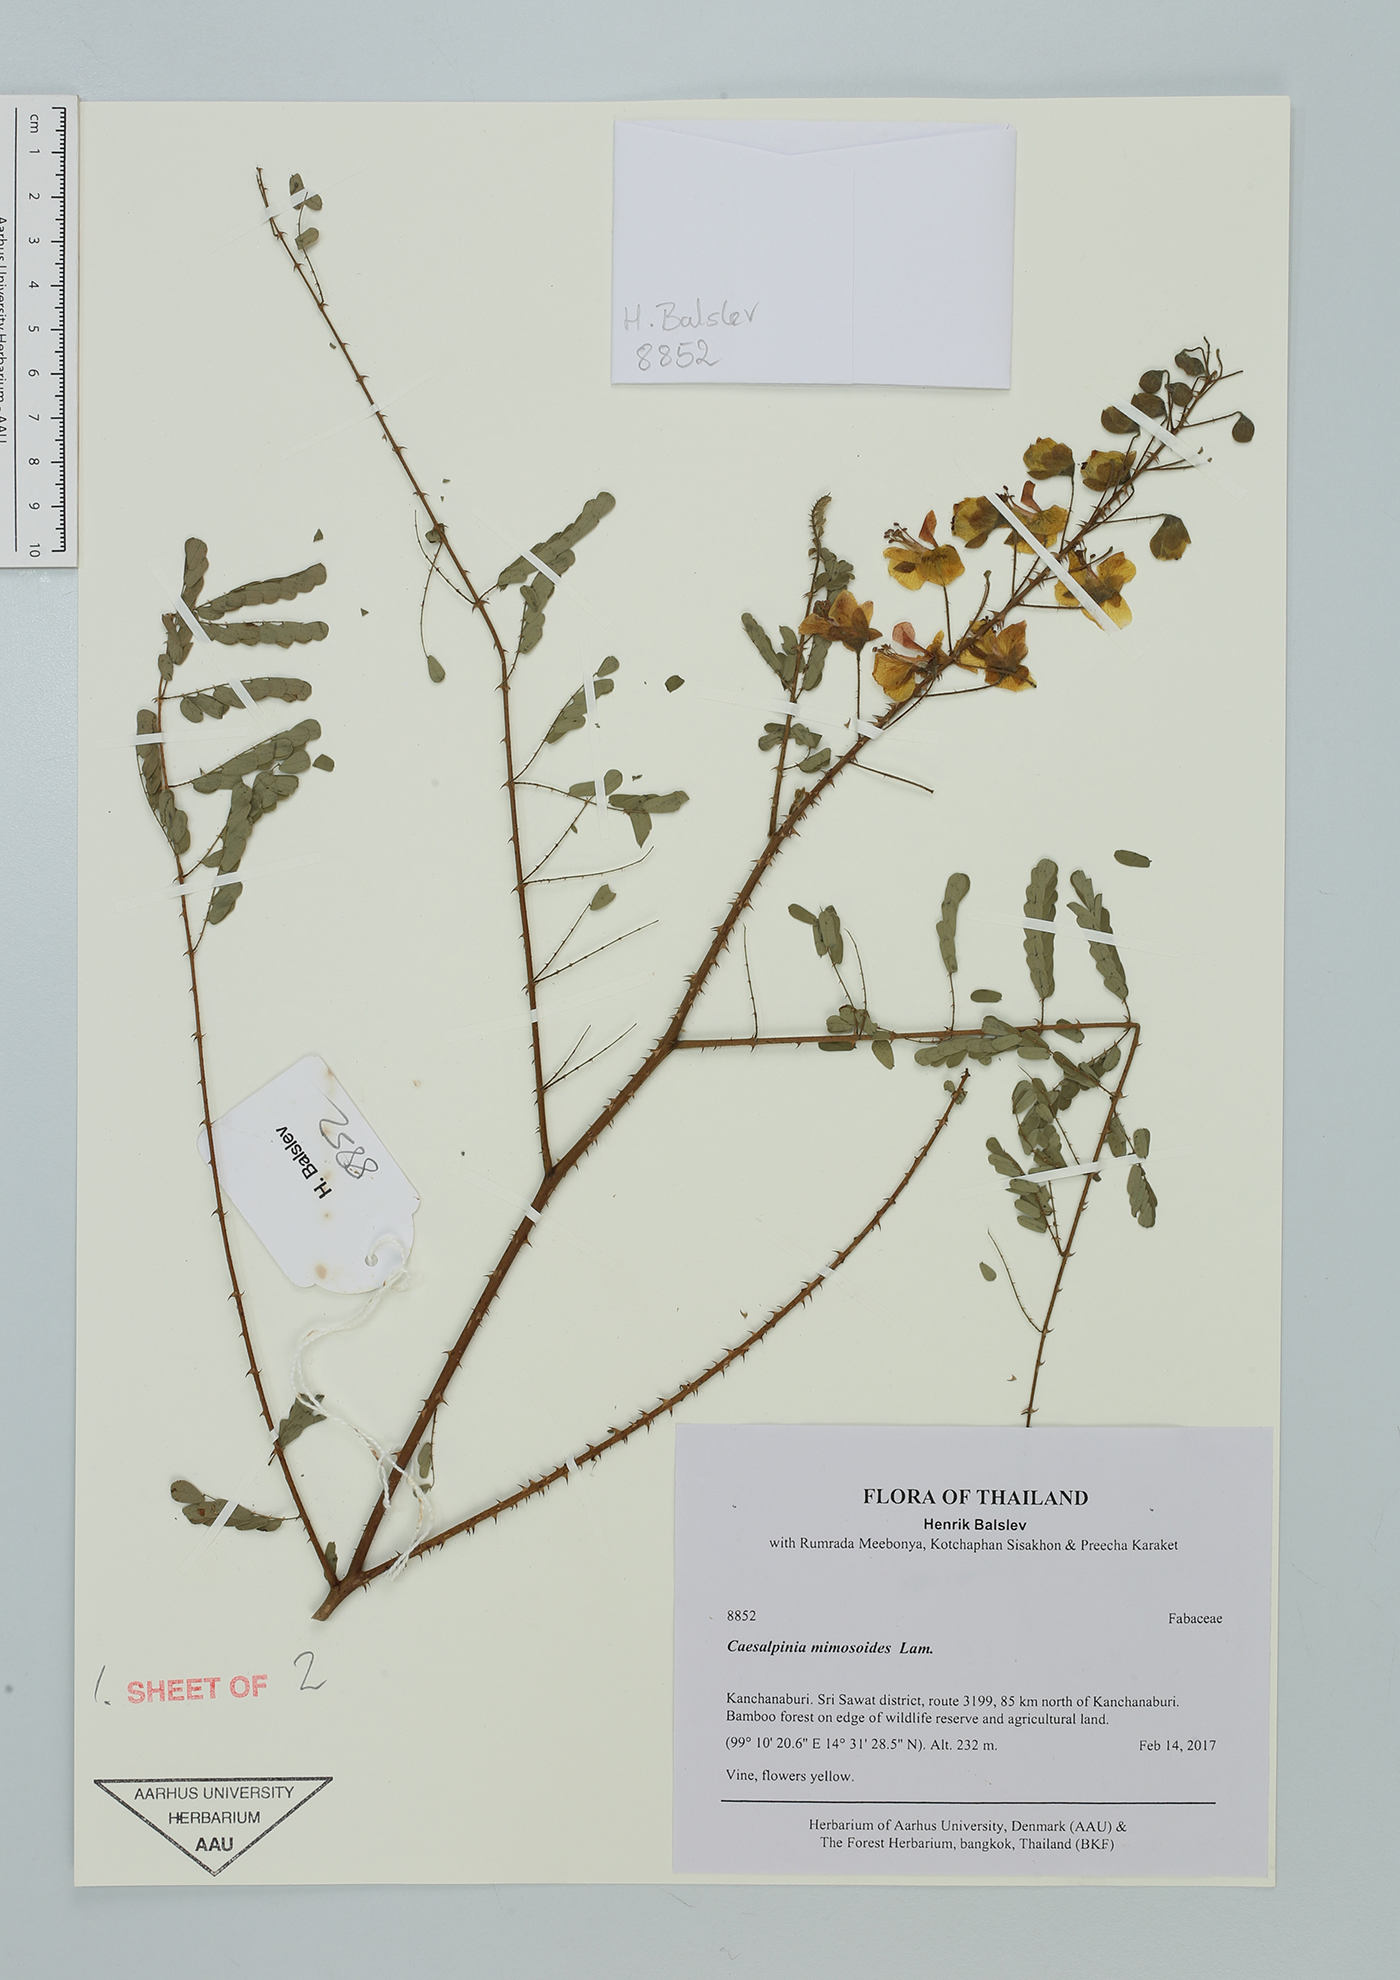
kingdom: Plantae
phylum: Tracheophyta
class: Magnoliopsida
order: Fabales
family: Fabaceae
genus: Hultholia
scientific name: Hultholia mimosoides
